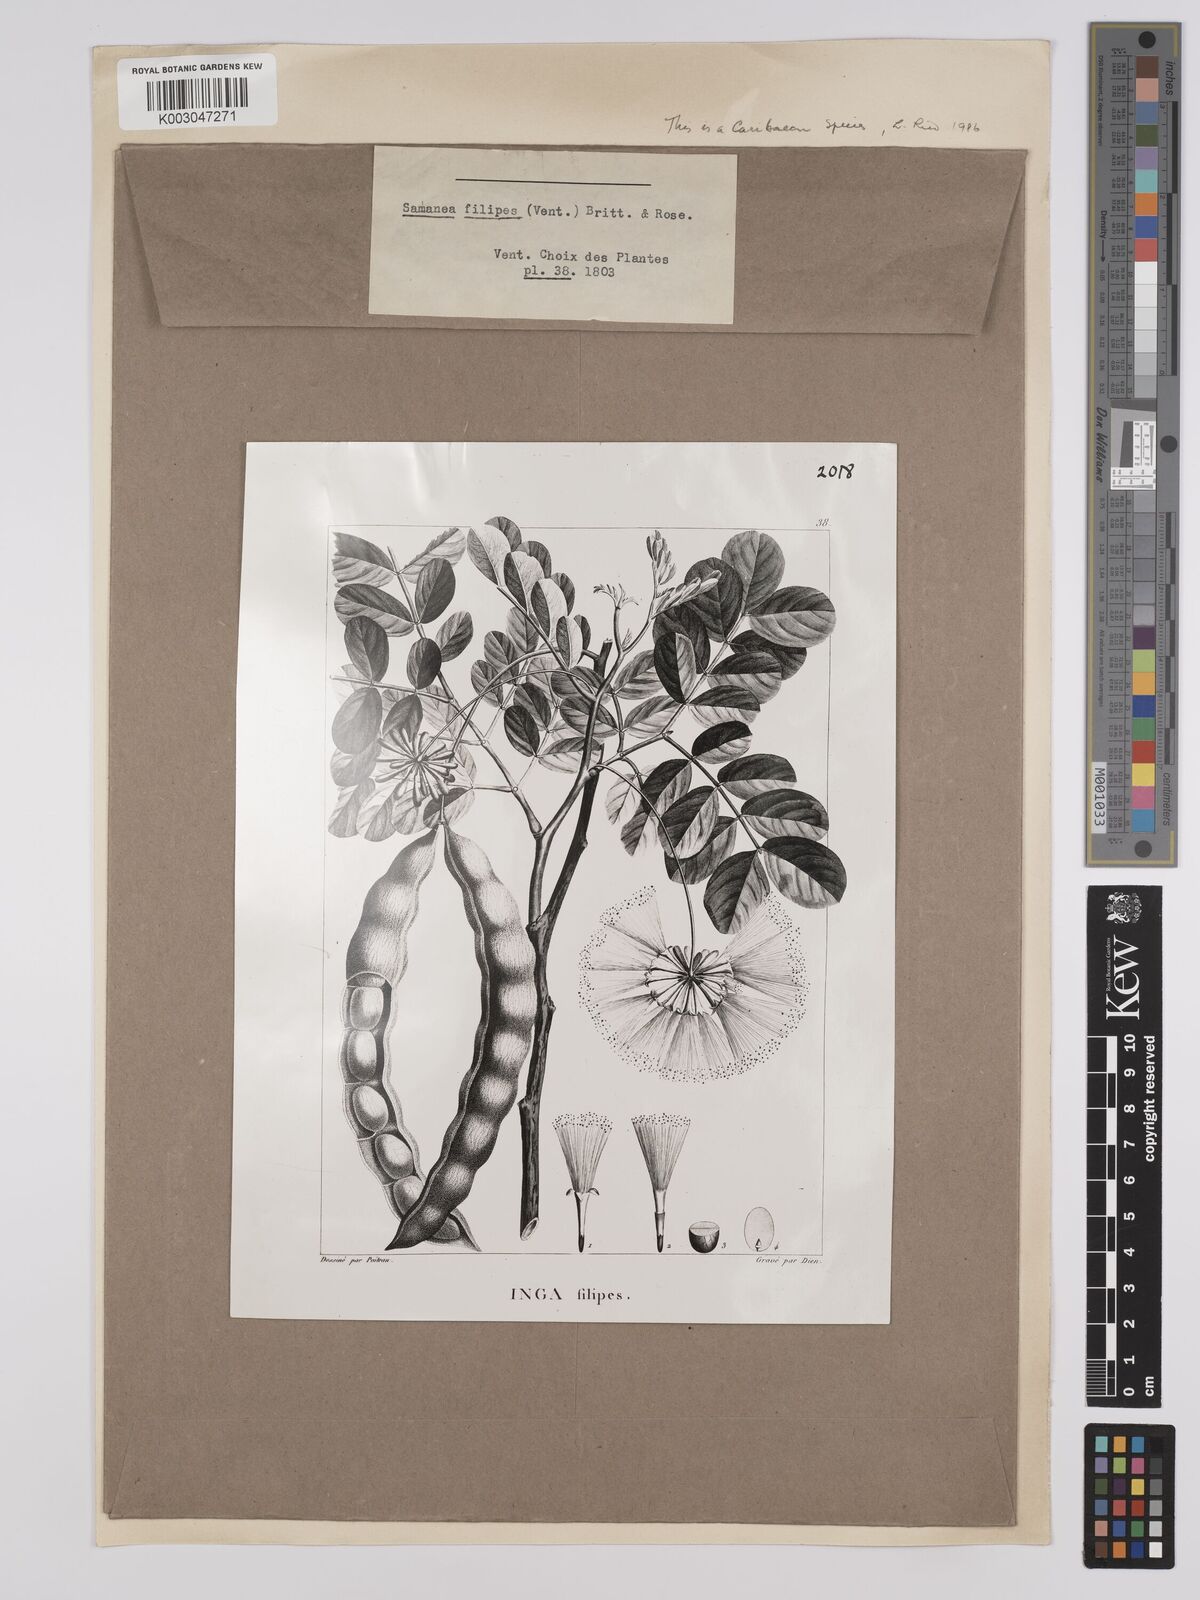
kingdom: Plantae
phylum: Tracheophyta
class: Magnoliopsida
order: Fabales
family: Fabaceae
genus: Albizia
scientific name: Albizia
